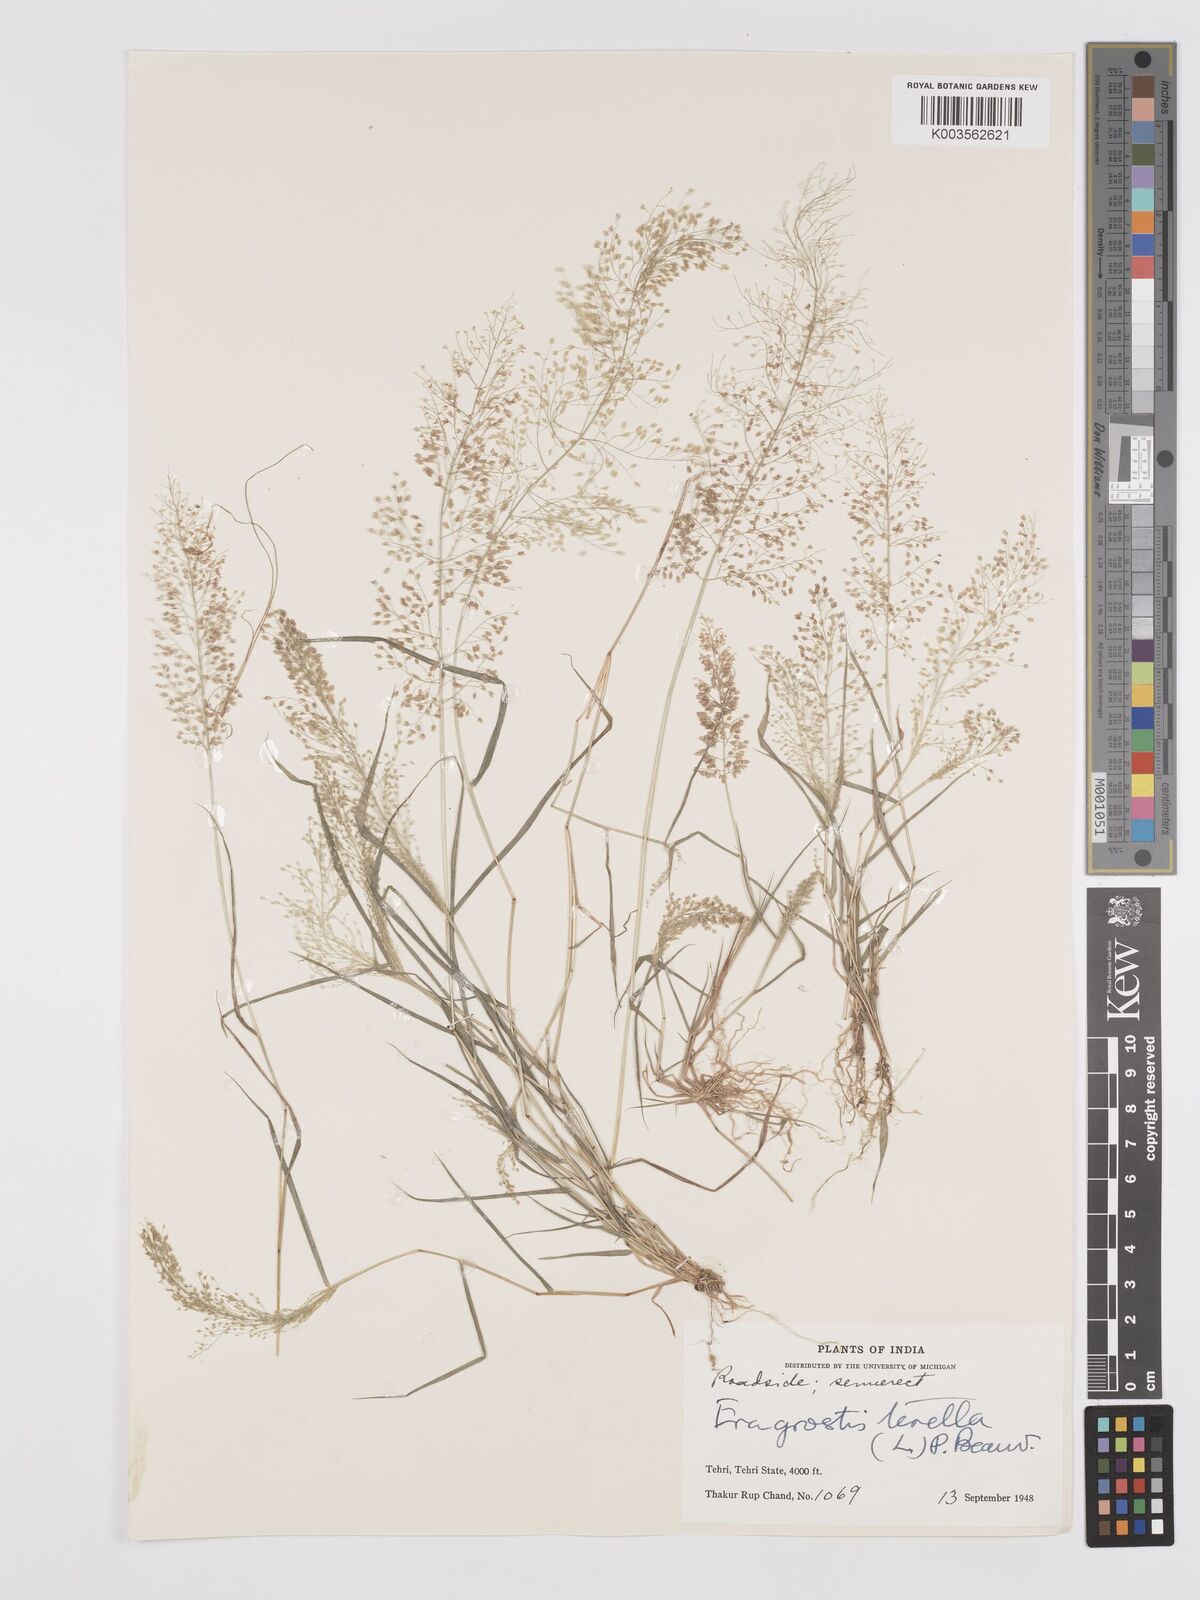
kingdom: Plantae
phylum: Tracheophyta
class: Liliopsida
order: Poales
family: Poaceae
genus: Eragrostis
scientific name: Eragrostis tenella
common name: Japanese lovegrass
